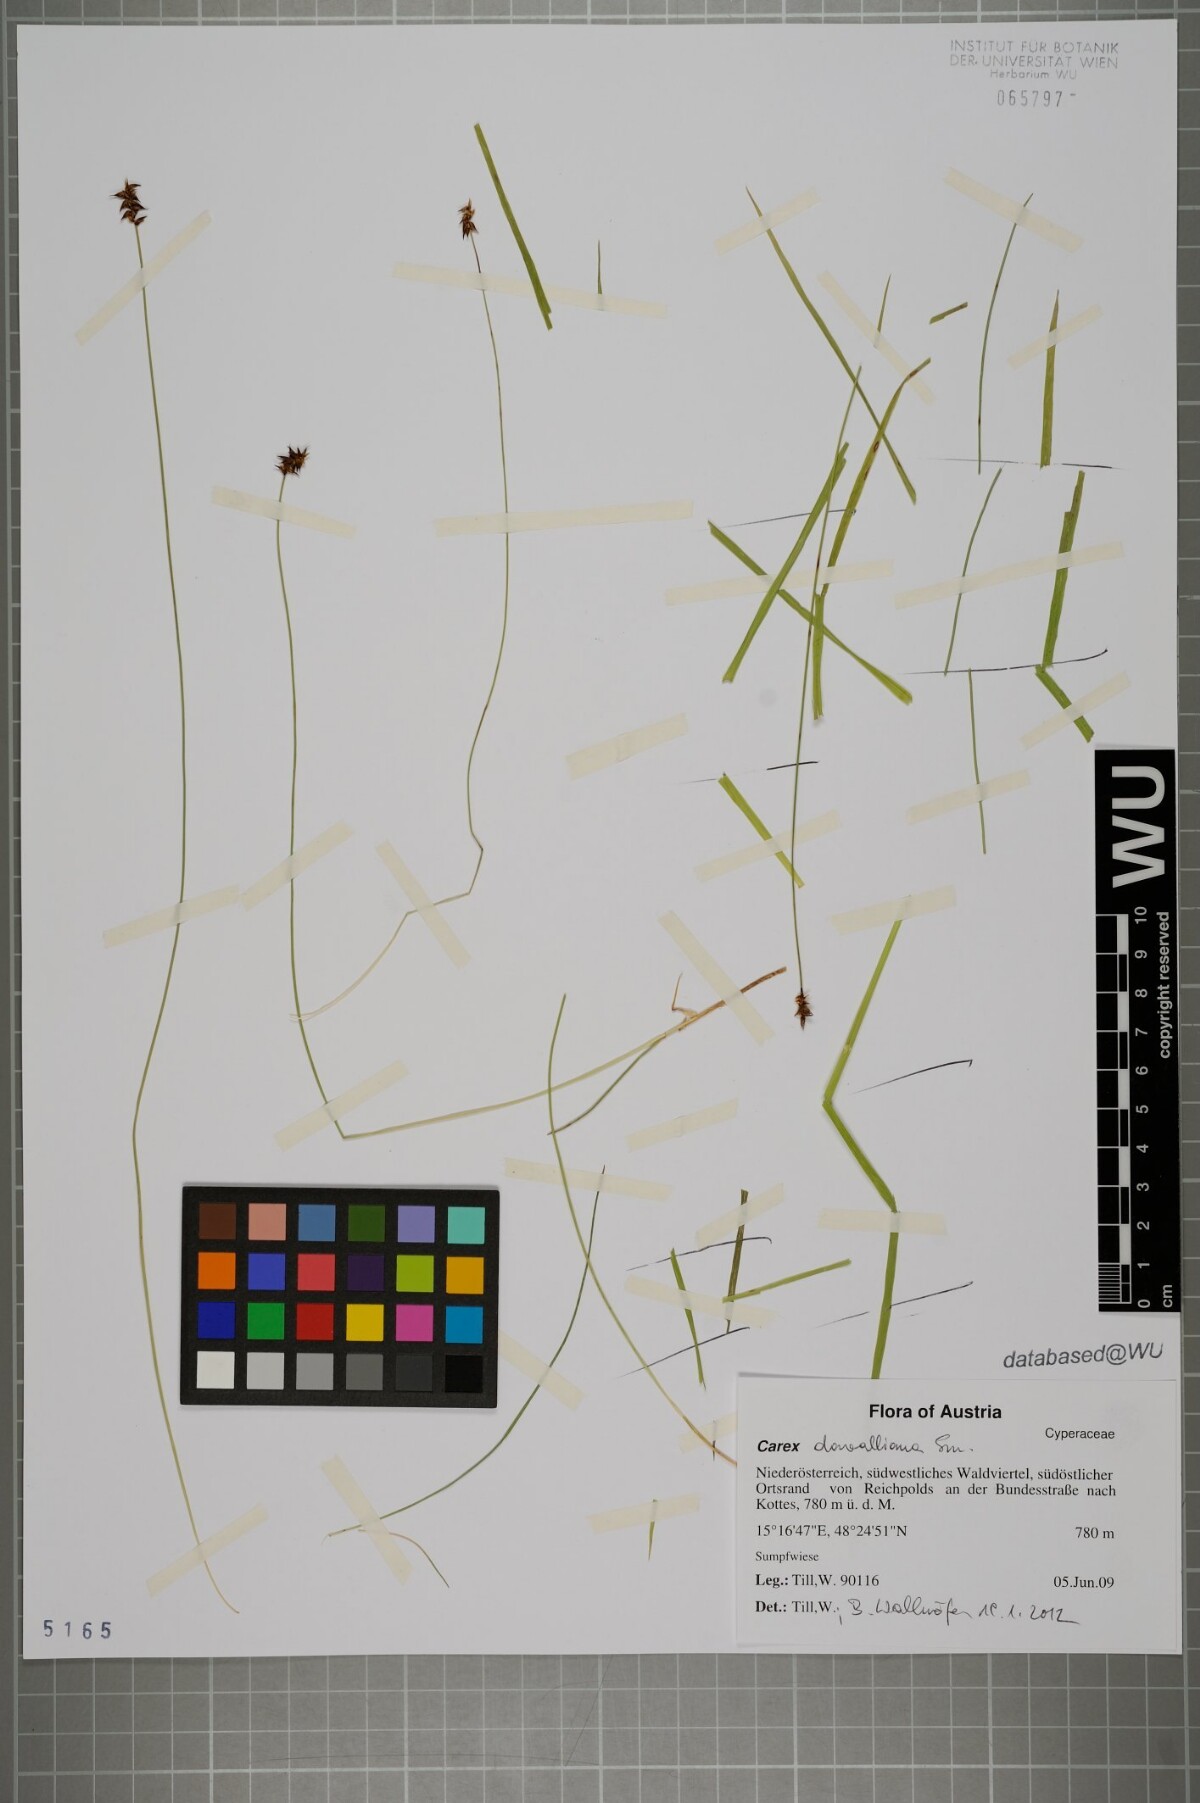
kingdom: Plantae
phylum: Tracheophyta
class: Liliopsida
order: Poales
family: Cyperaceae
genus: Carex
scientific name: Carex davalliana
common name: Davall's sedge
